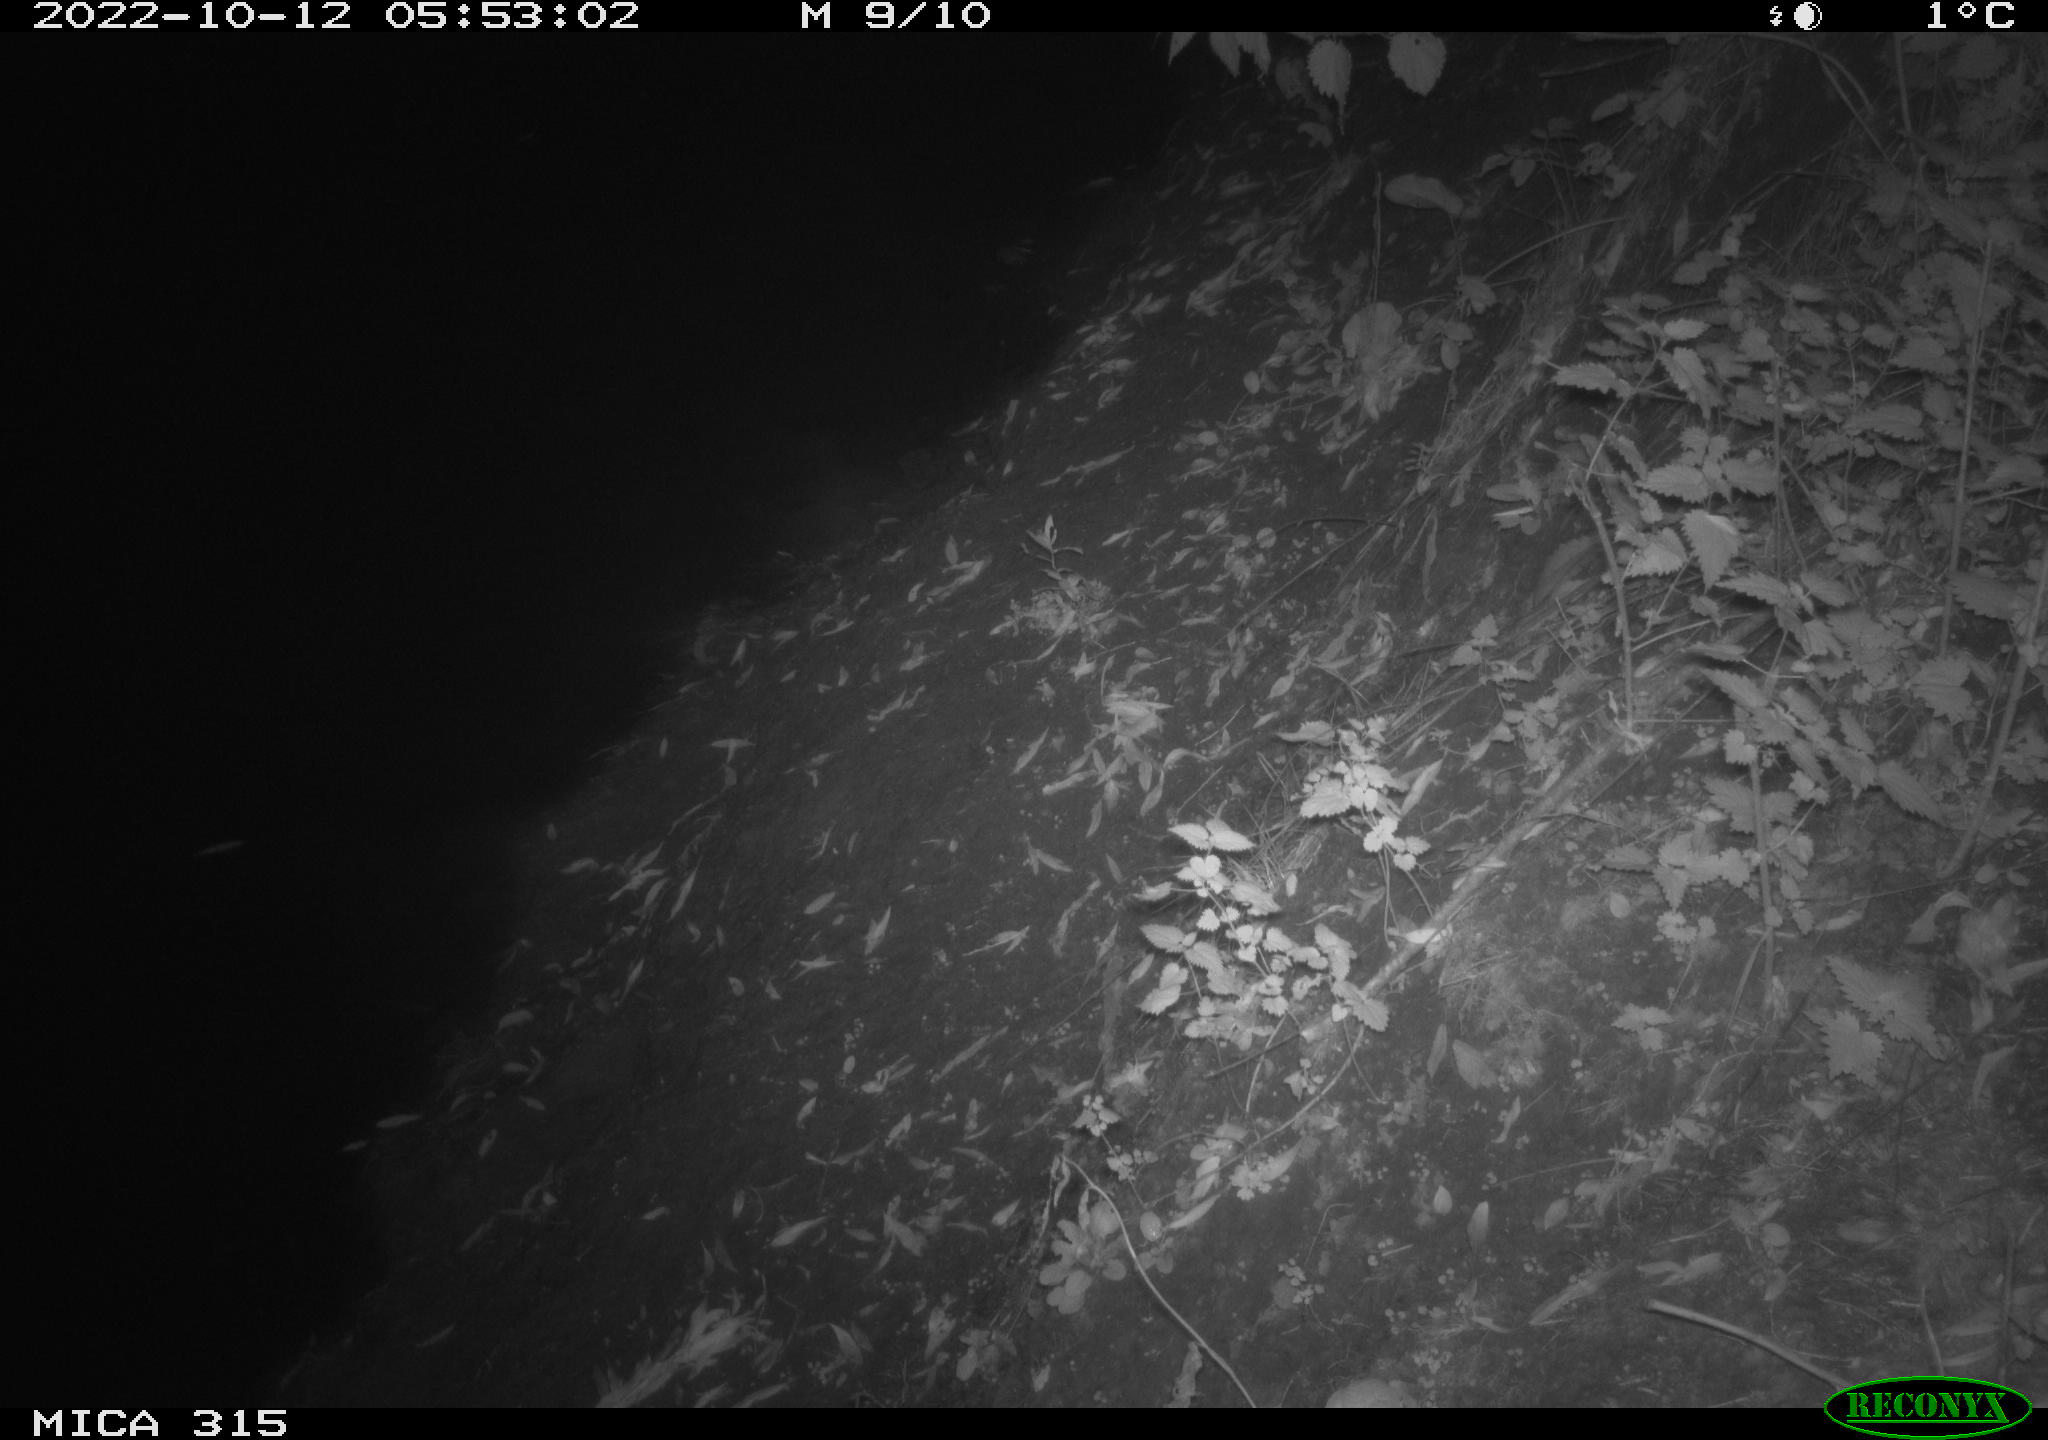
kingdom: Animalia
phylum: Chordata
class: Mammalia
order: Carnivora
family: Canidae
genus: Vulpes
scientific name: Vulpes vulpes
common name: Red fox
